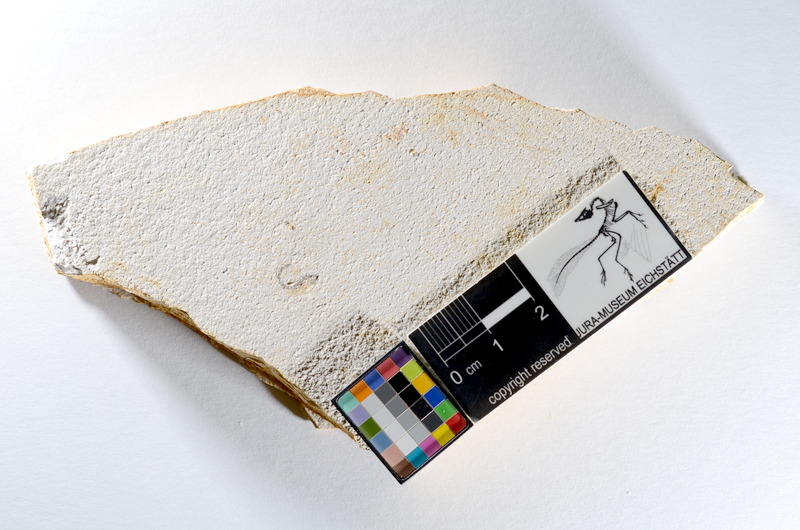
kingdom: Animalia
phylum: Chordata
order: Salmoniformes
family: Orthogonikleithridae
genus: Orthogonikleithrus
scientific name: Orthogonikleithrus hoelli
